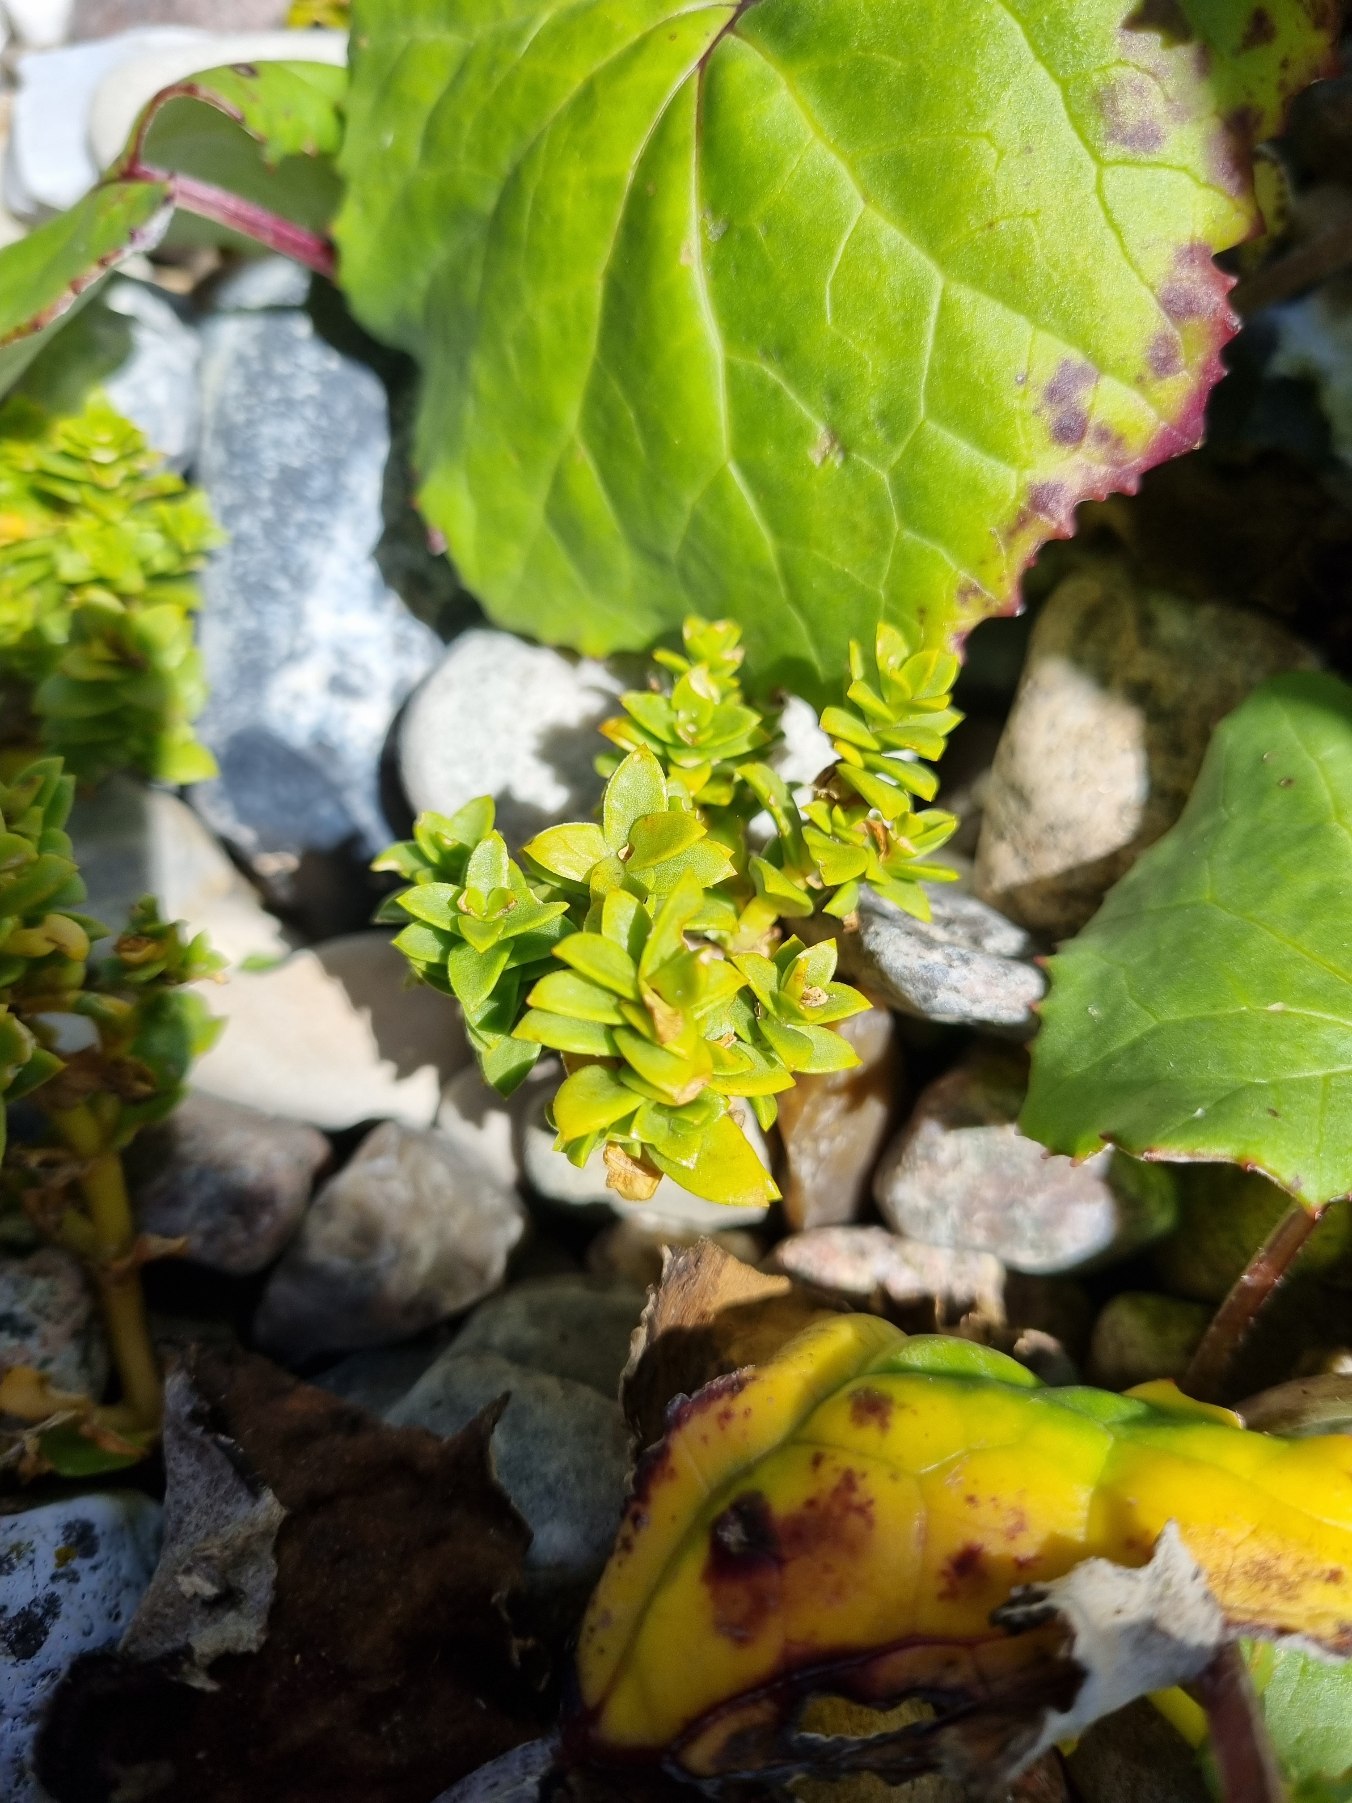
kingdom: Plantae
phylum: Tracheophyta
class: Magnoliopsida
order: Caryophyllales
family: Caryophyllaceae
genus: Honckenya
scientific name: Honckenya peploides
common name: Strandarve
